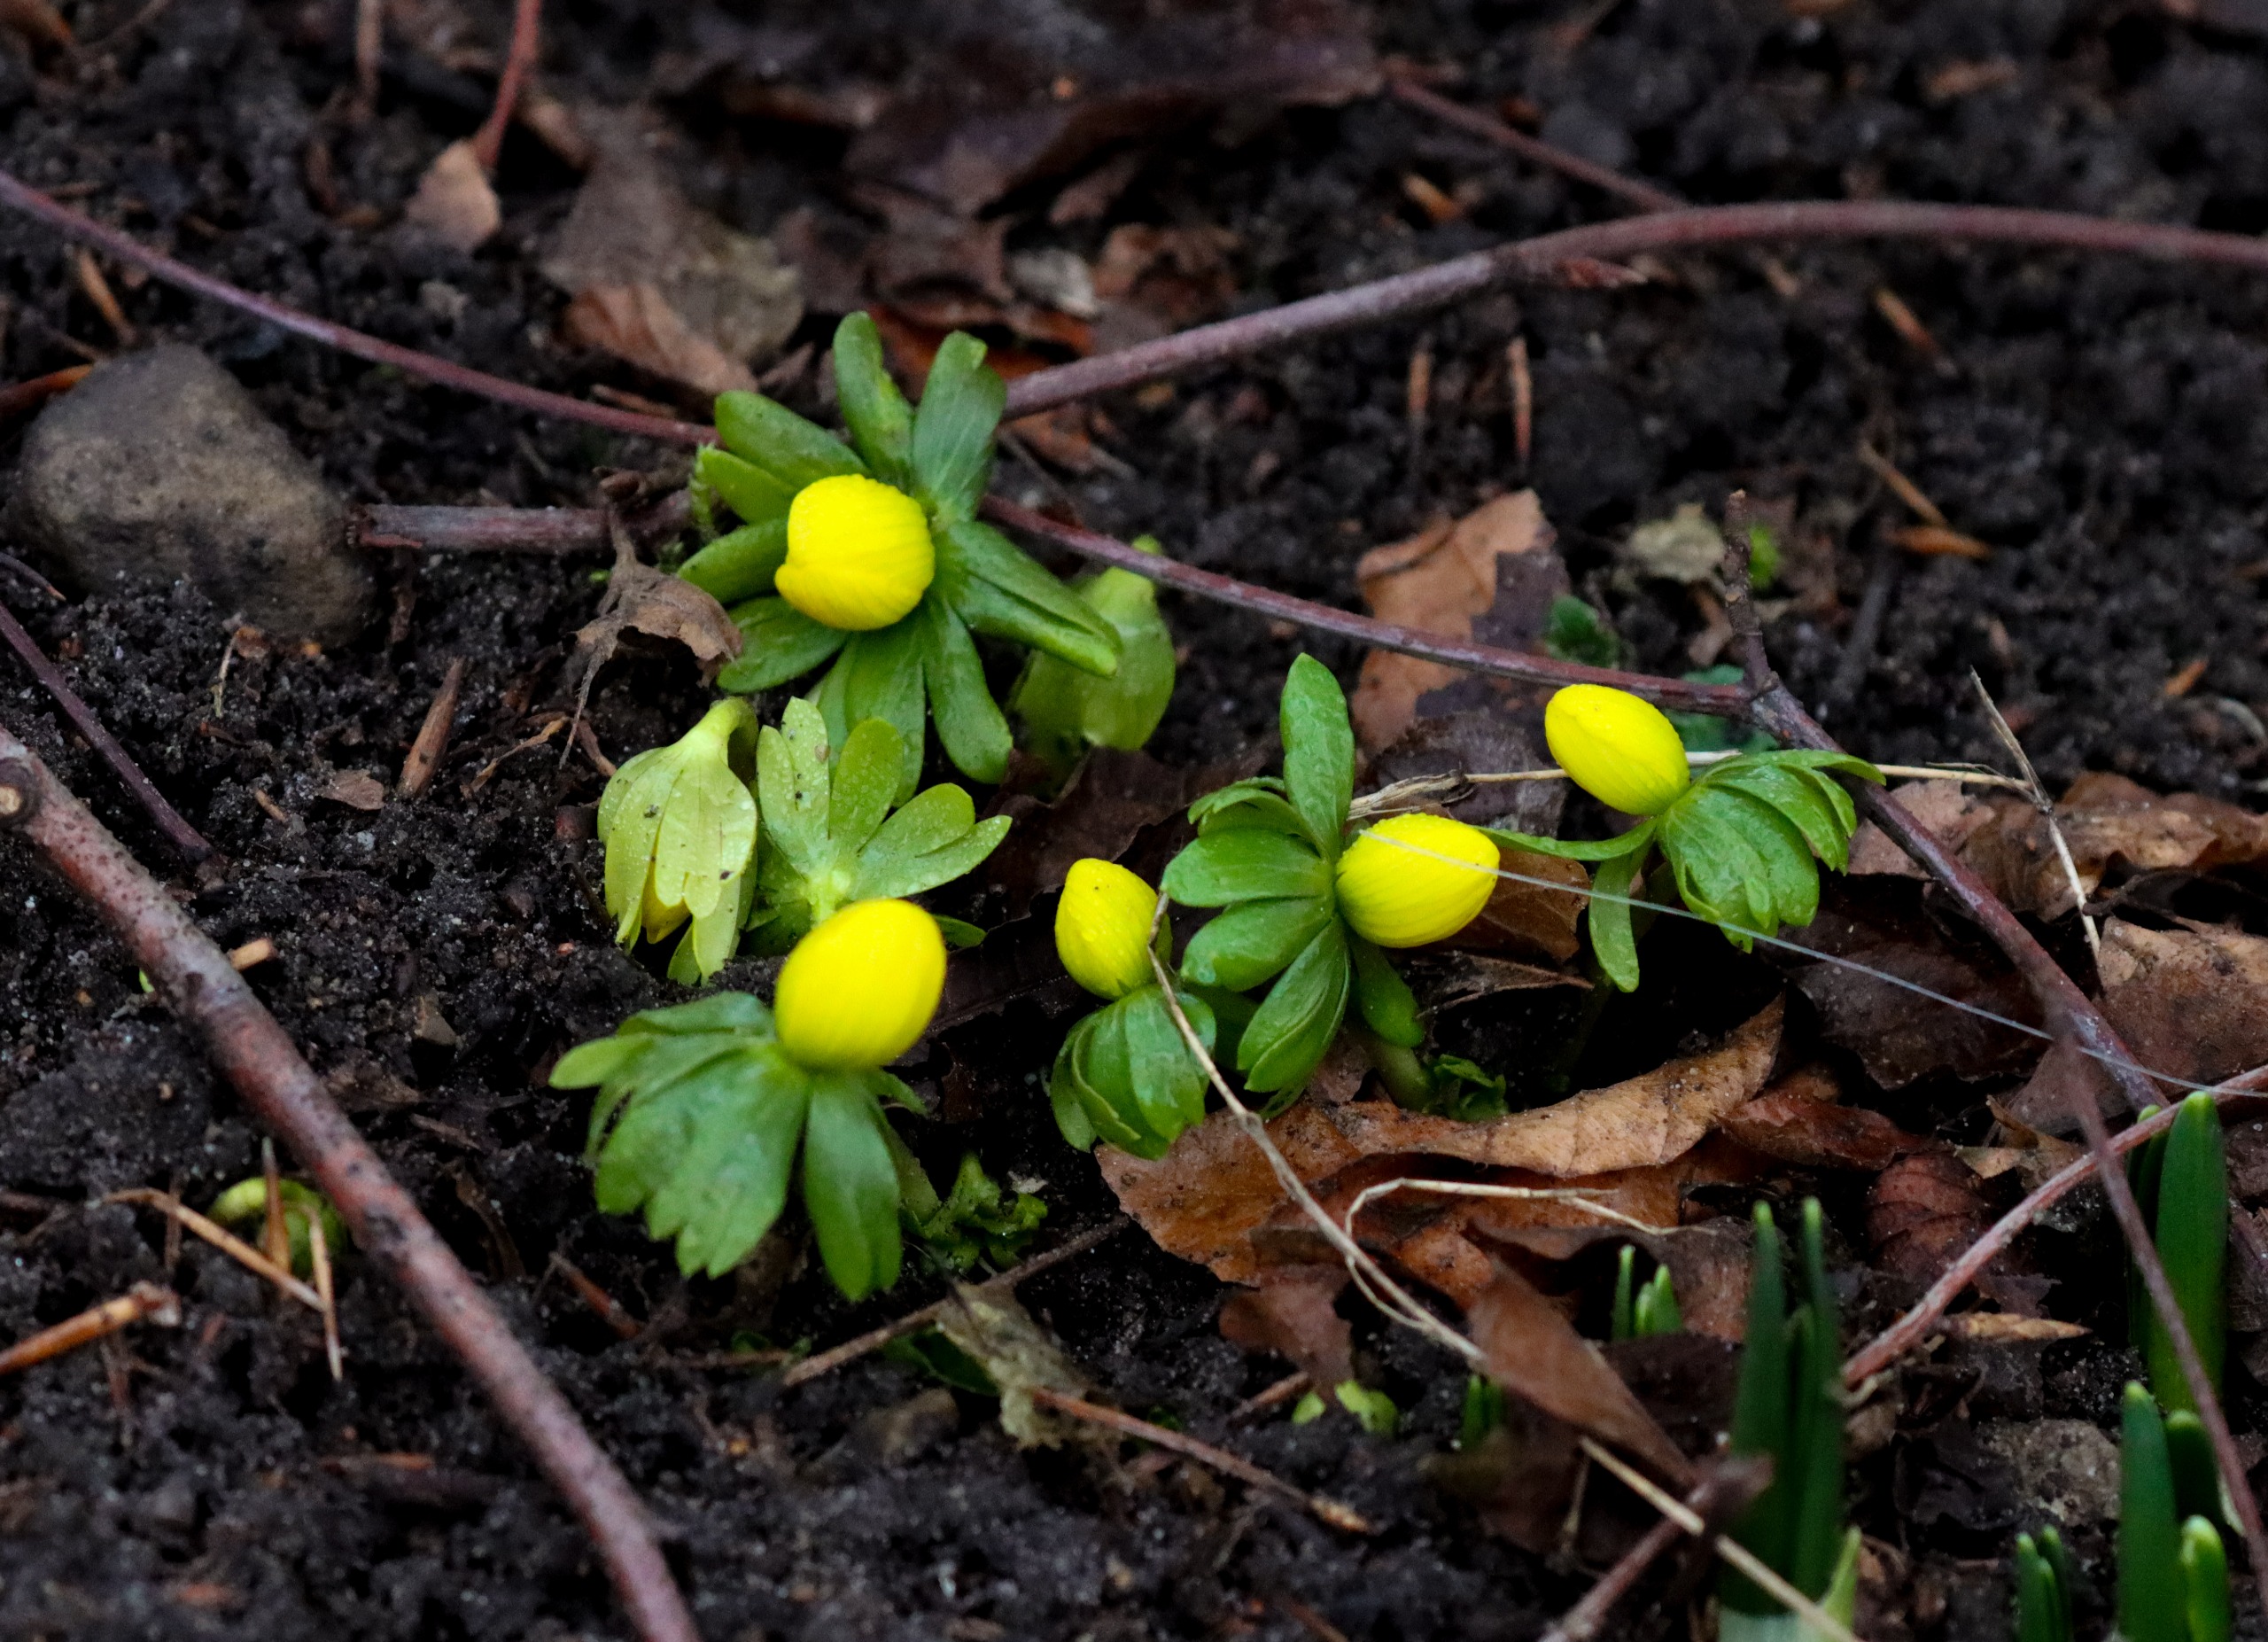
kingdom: Plantae
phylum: Tracheophyta
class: Magnoliopsida
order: Ranunculales
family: Ranunculaceae
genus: Eranthis
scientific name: Eranthis hyemalis
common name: Erantis
